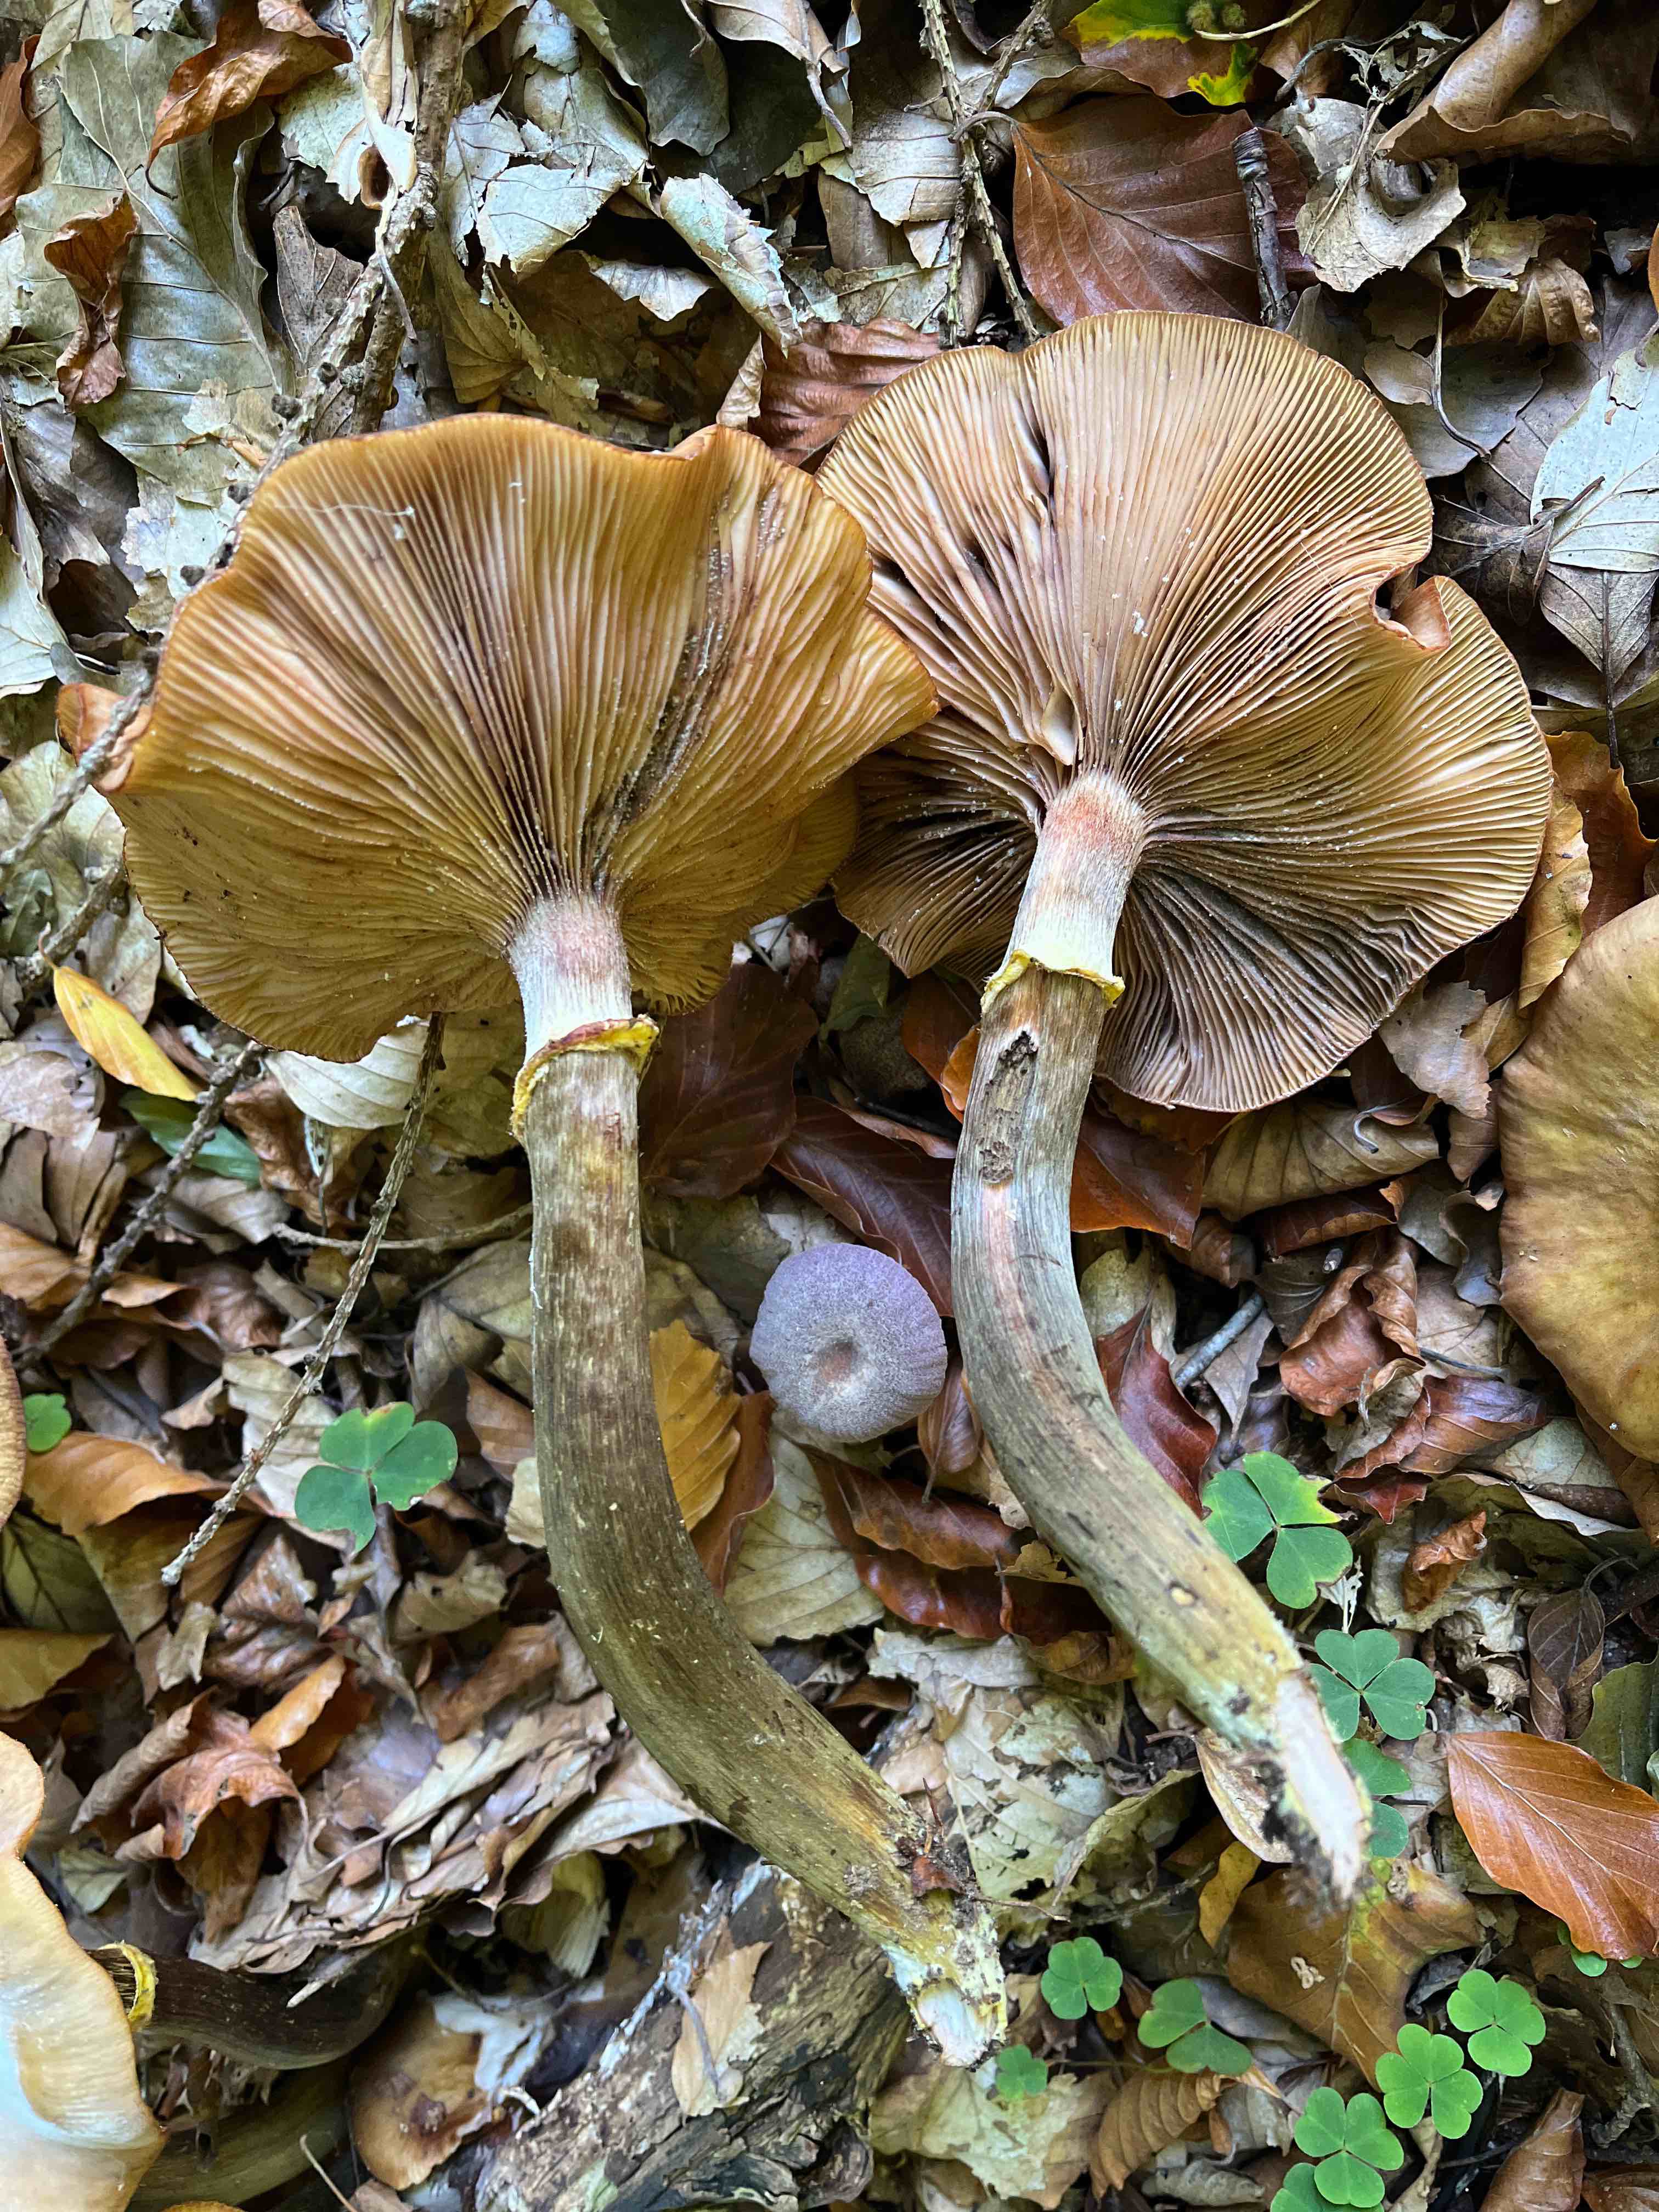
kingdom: Fungi
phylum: Basidiomycota
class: Agaricomycetes
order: Agaricales
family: Physalacriaceae
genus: Armillaria
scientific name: Armillaria
